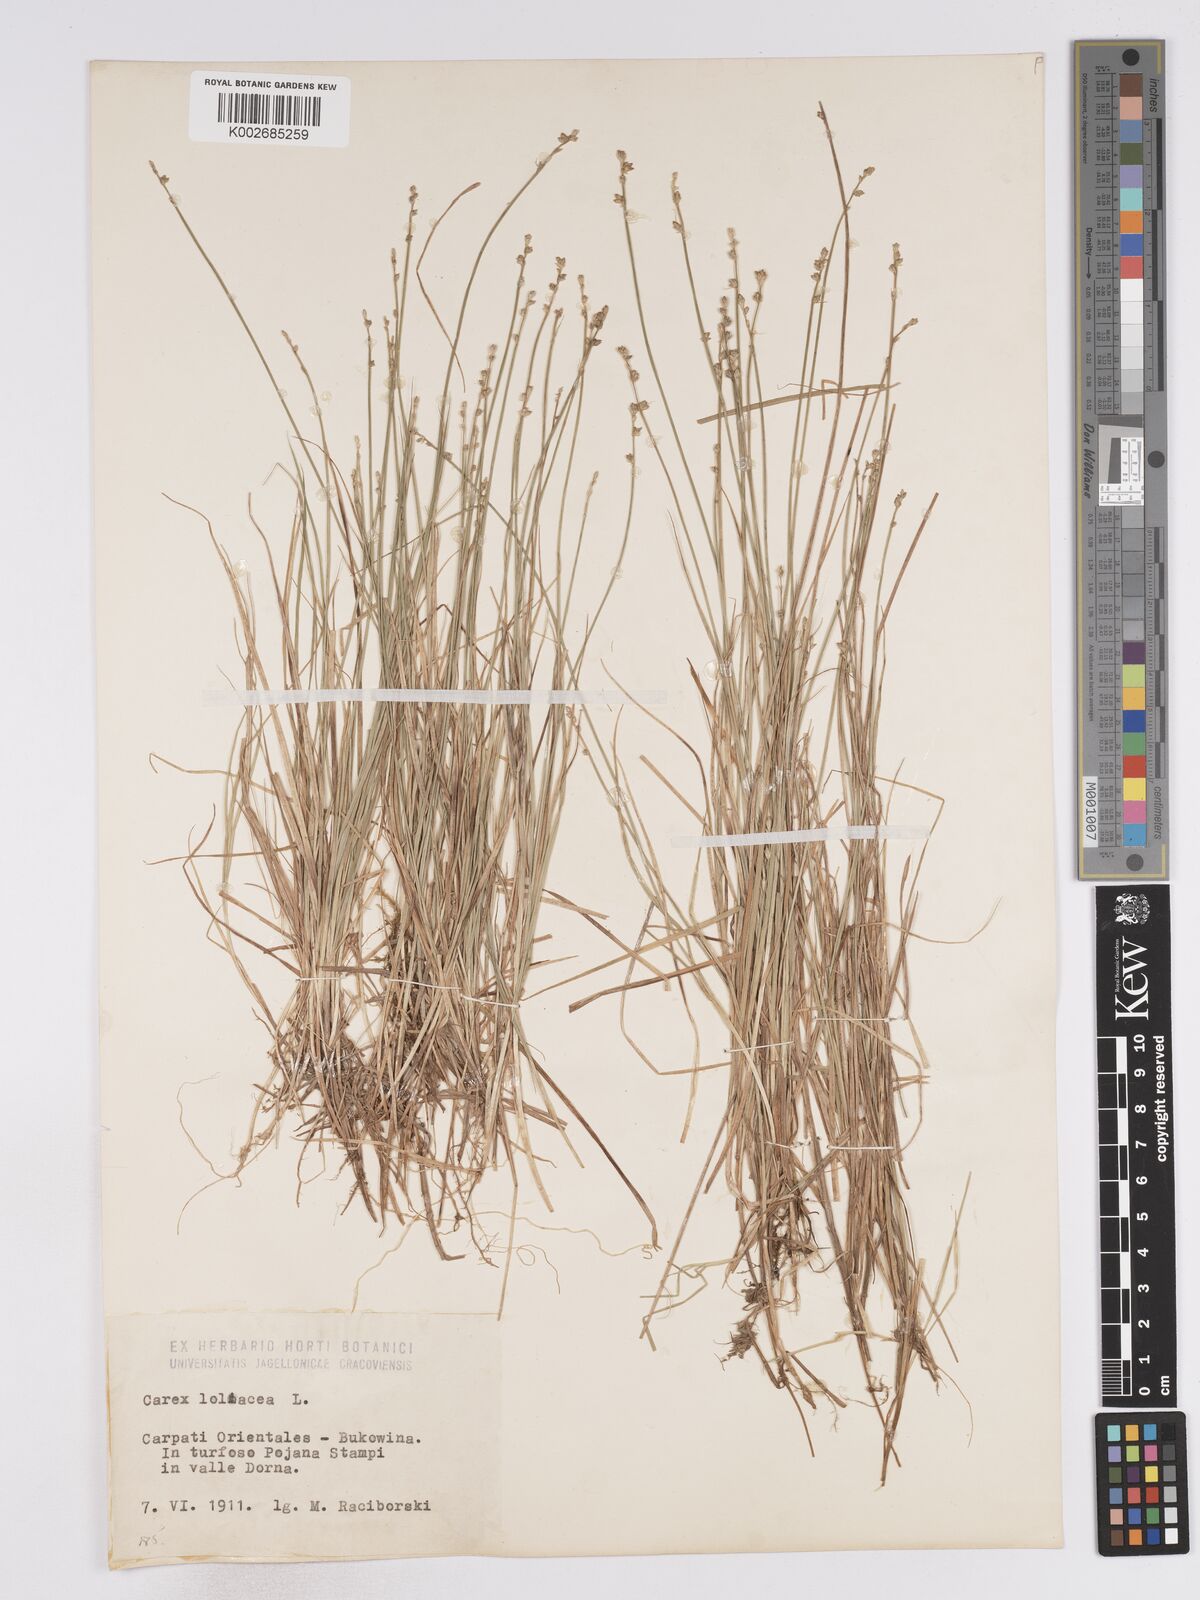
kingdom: Plantae
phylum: Tracheophyta
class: Liliopsida
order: Poales
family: Cyperaceae
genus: Carex
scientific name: Carex loliacea
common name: Ryegrass sedge
